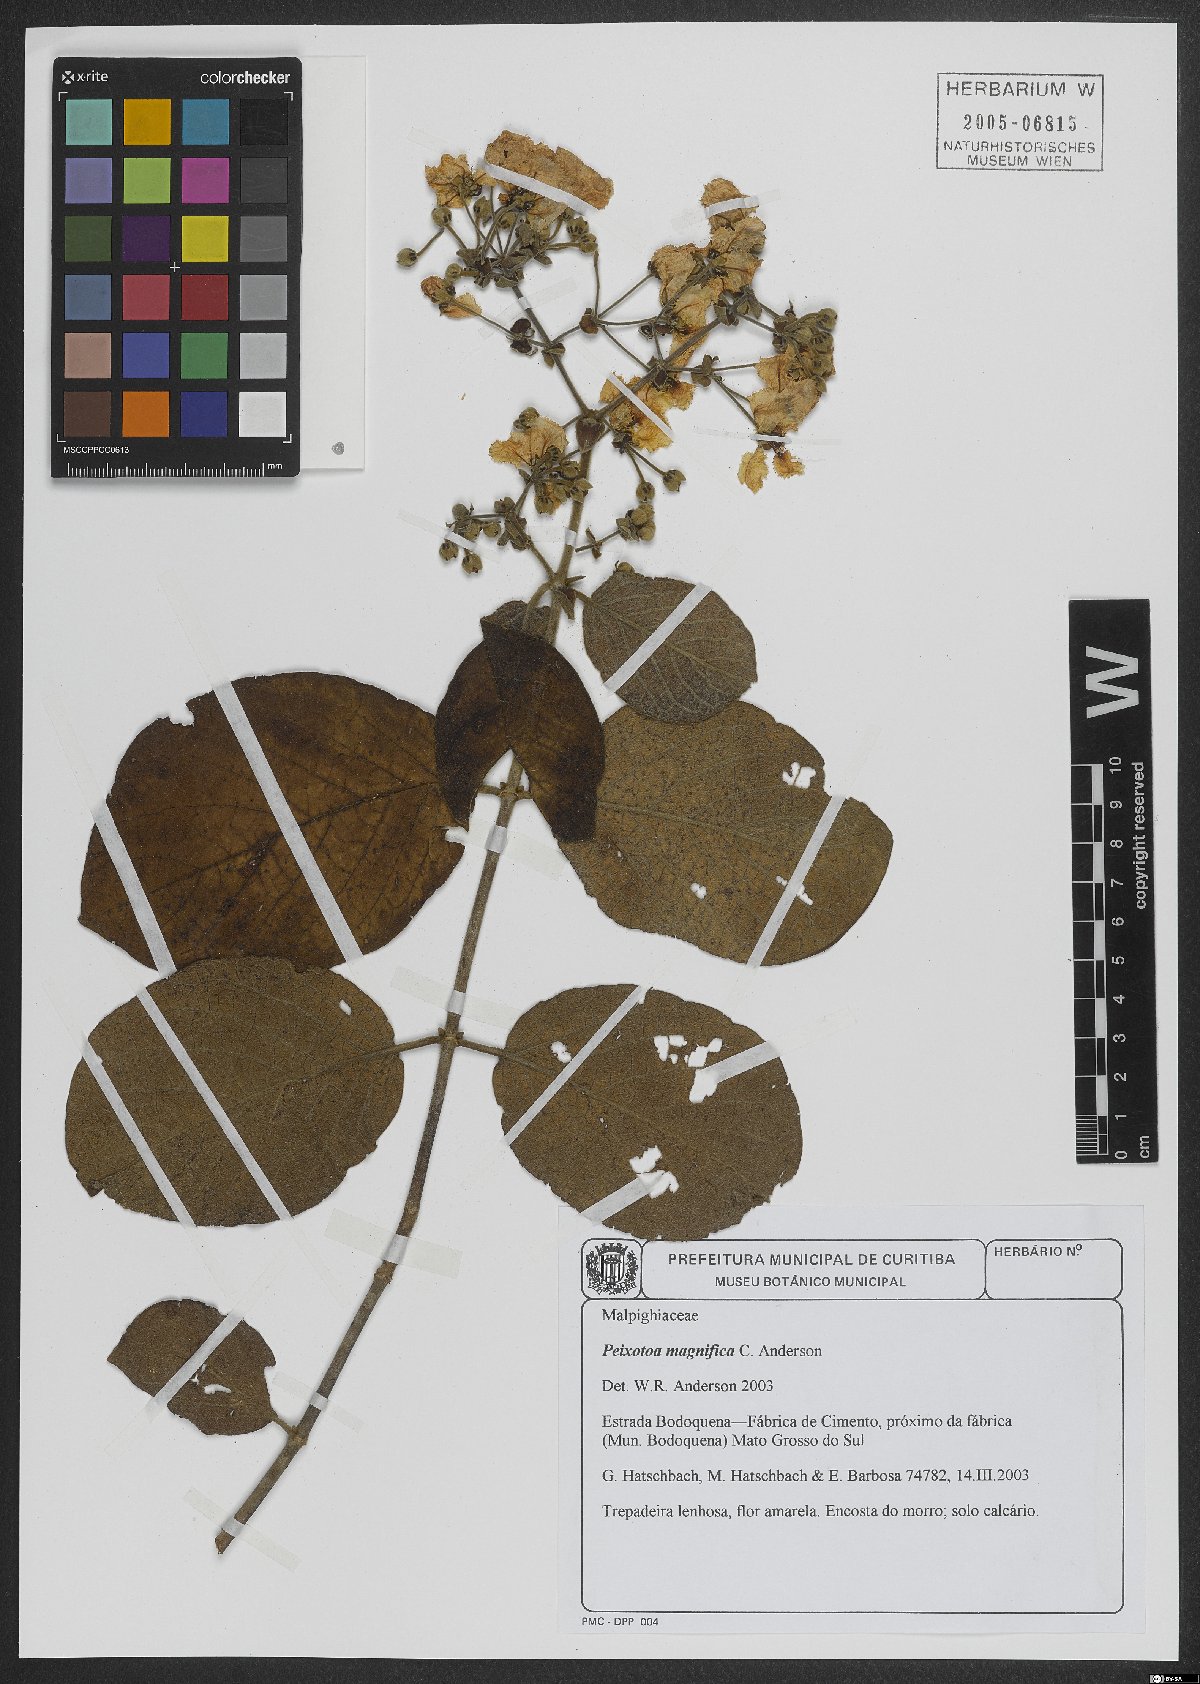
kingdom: Plantae
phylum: Tracheophyta
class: Magnoliopsida
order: Malpighiales
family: Malpighiaceae
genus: Peixotoa
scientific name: Peixotoa magnifica
